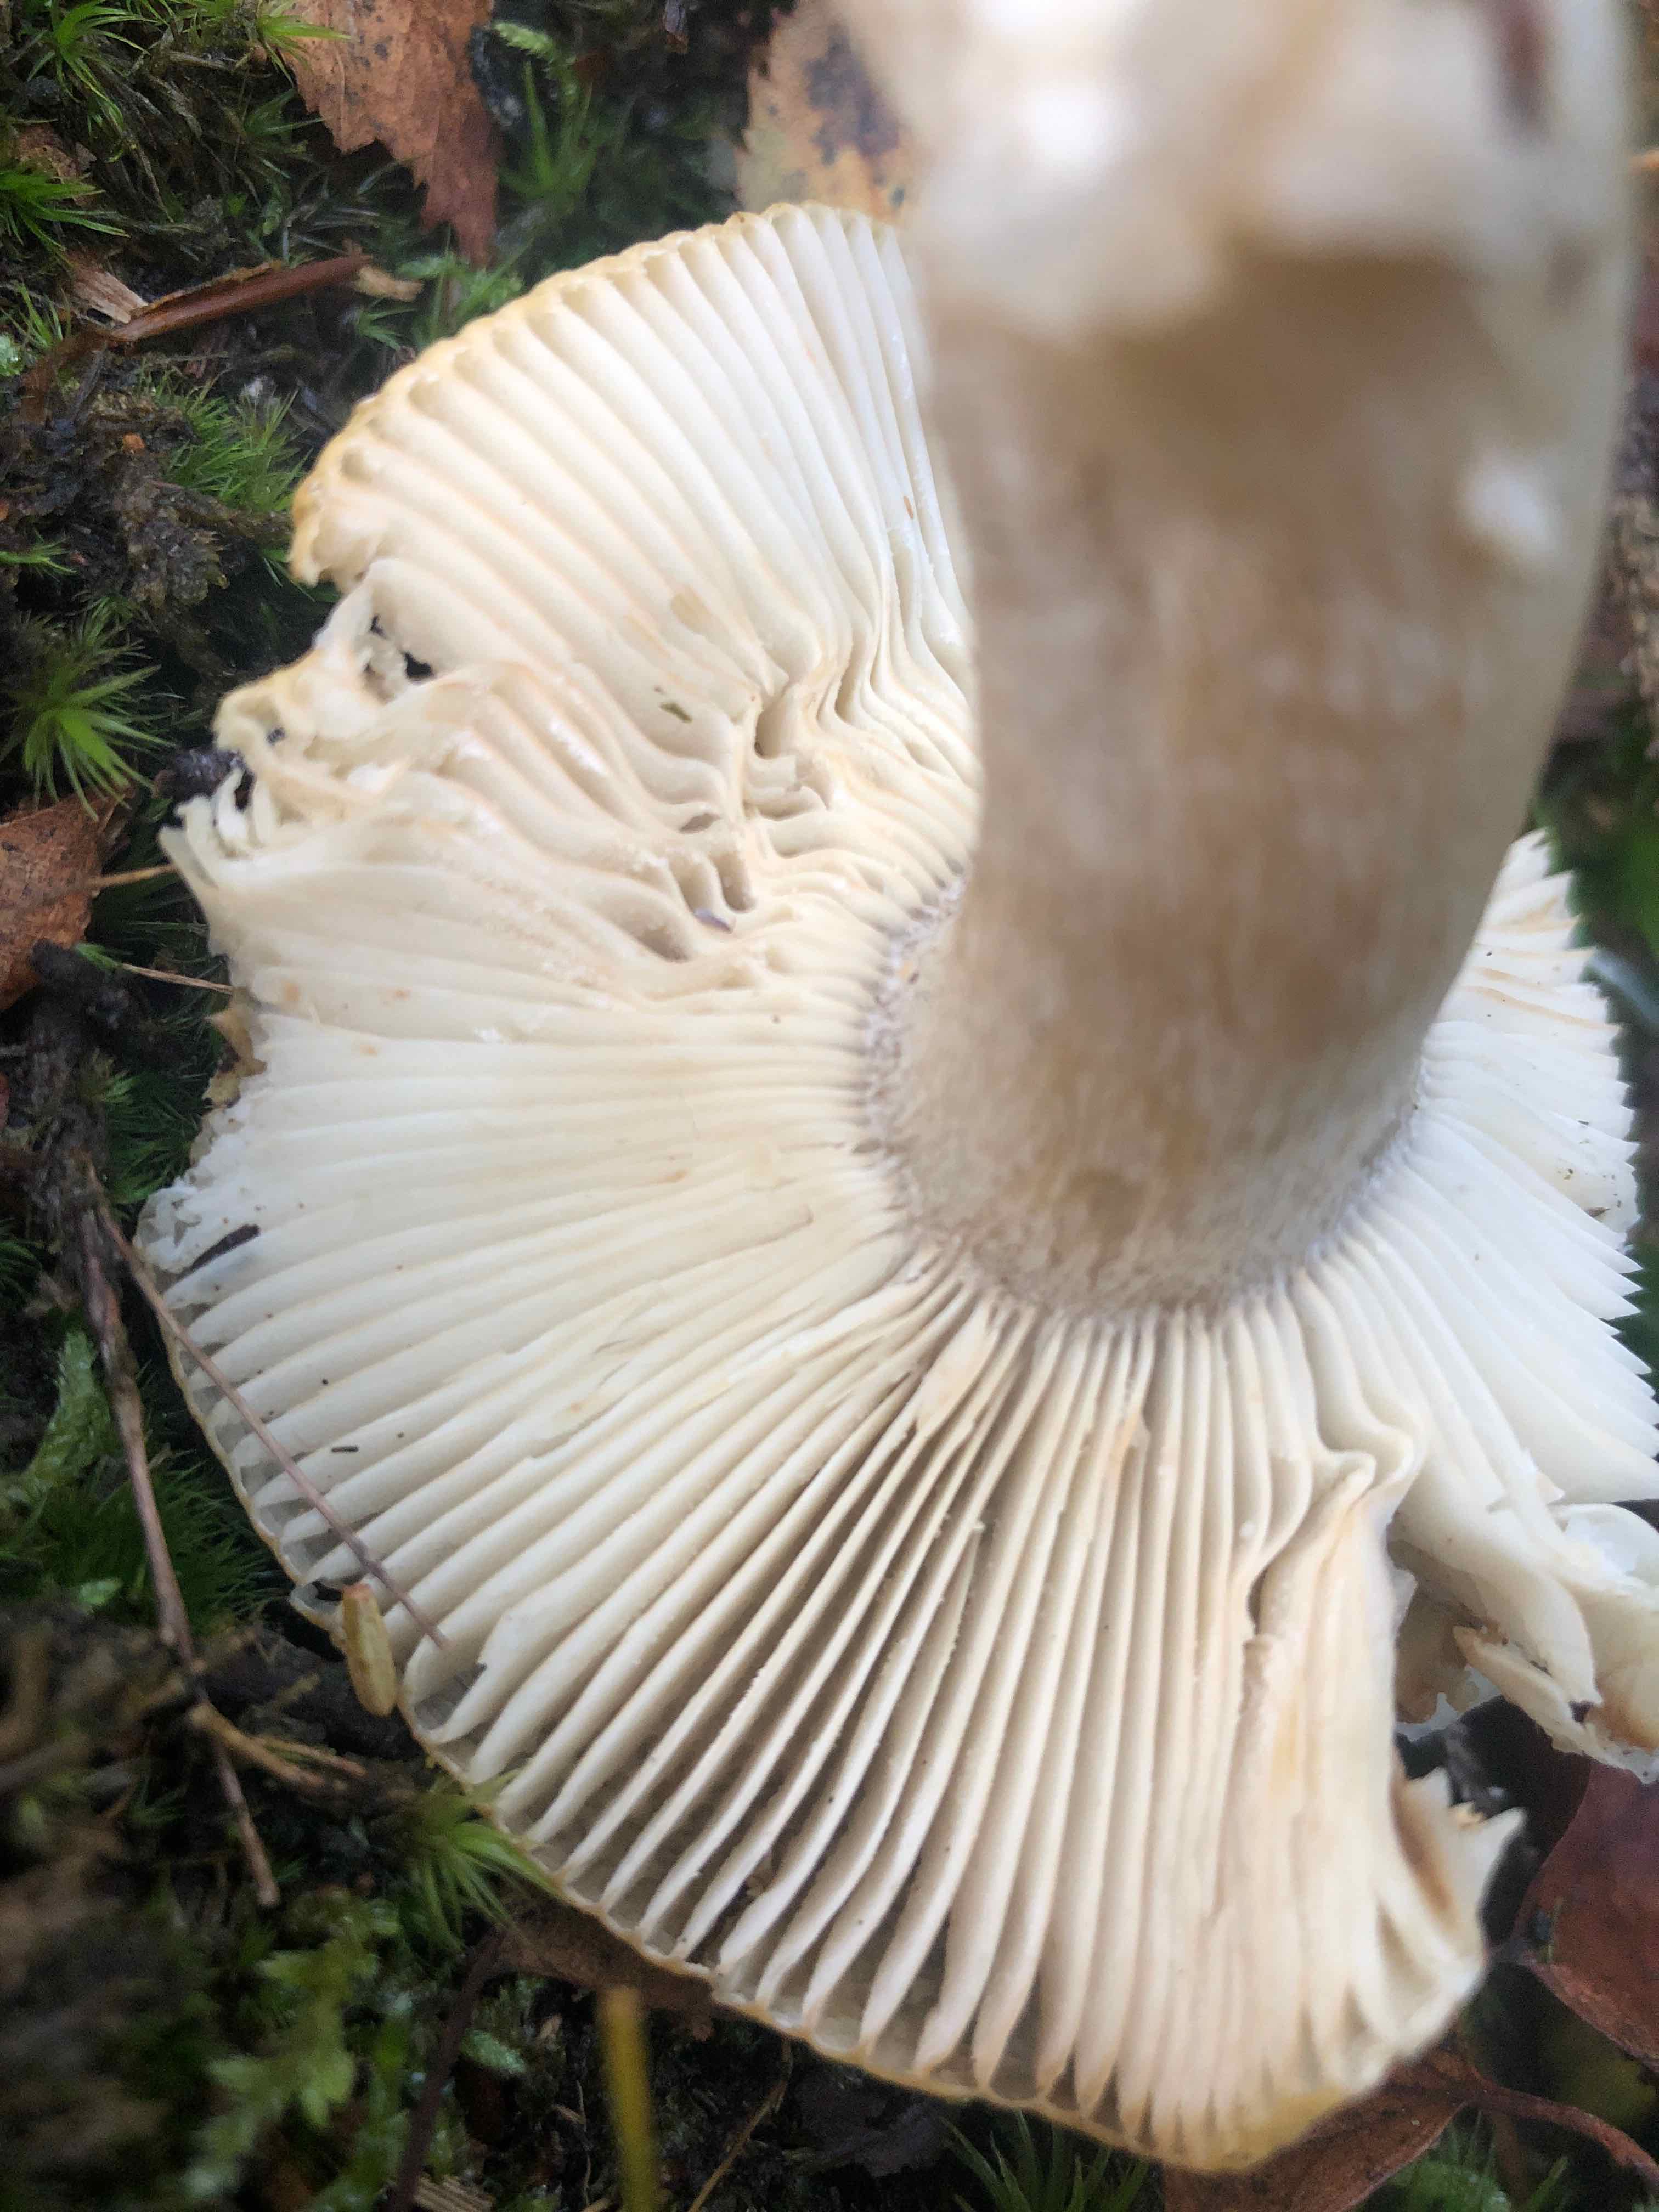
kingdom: Fungi
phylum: Basidiomycota
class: Agaricomycetes
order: Russulales
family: Russulaceae
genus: Russula
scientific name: Russula fellea
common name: galde-skørhat
